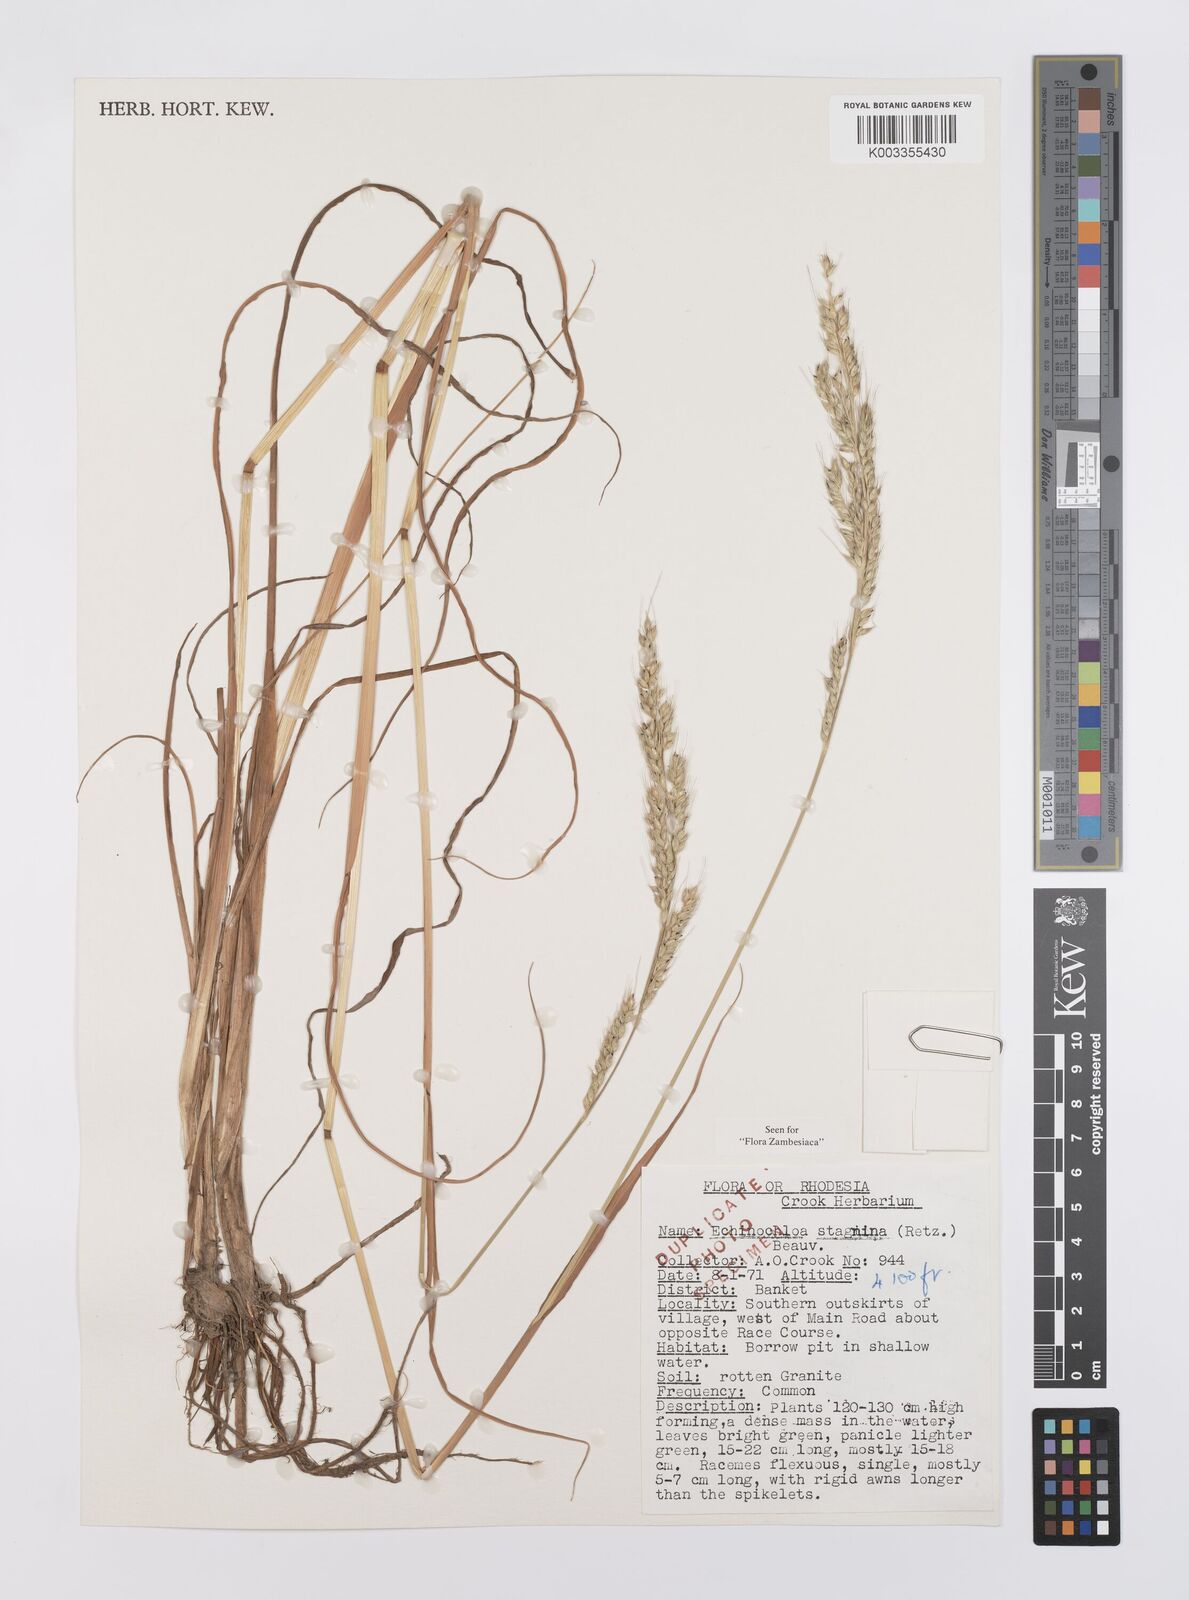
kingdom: Plantae
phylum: Tracheophyta
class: Liliopsida
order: Poales
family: Poaceae
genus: Echinochloa
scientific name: Echinochloa stagnina
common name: Burgu grass
